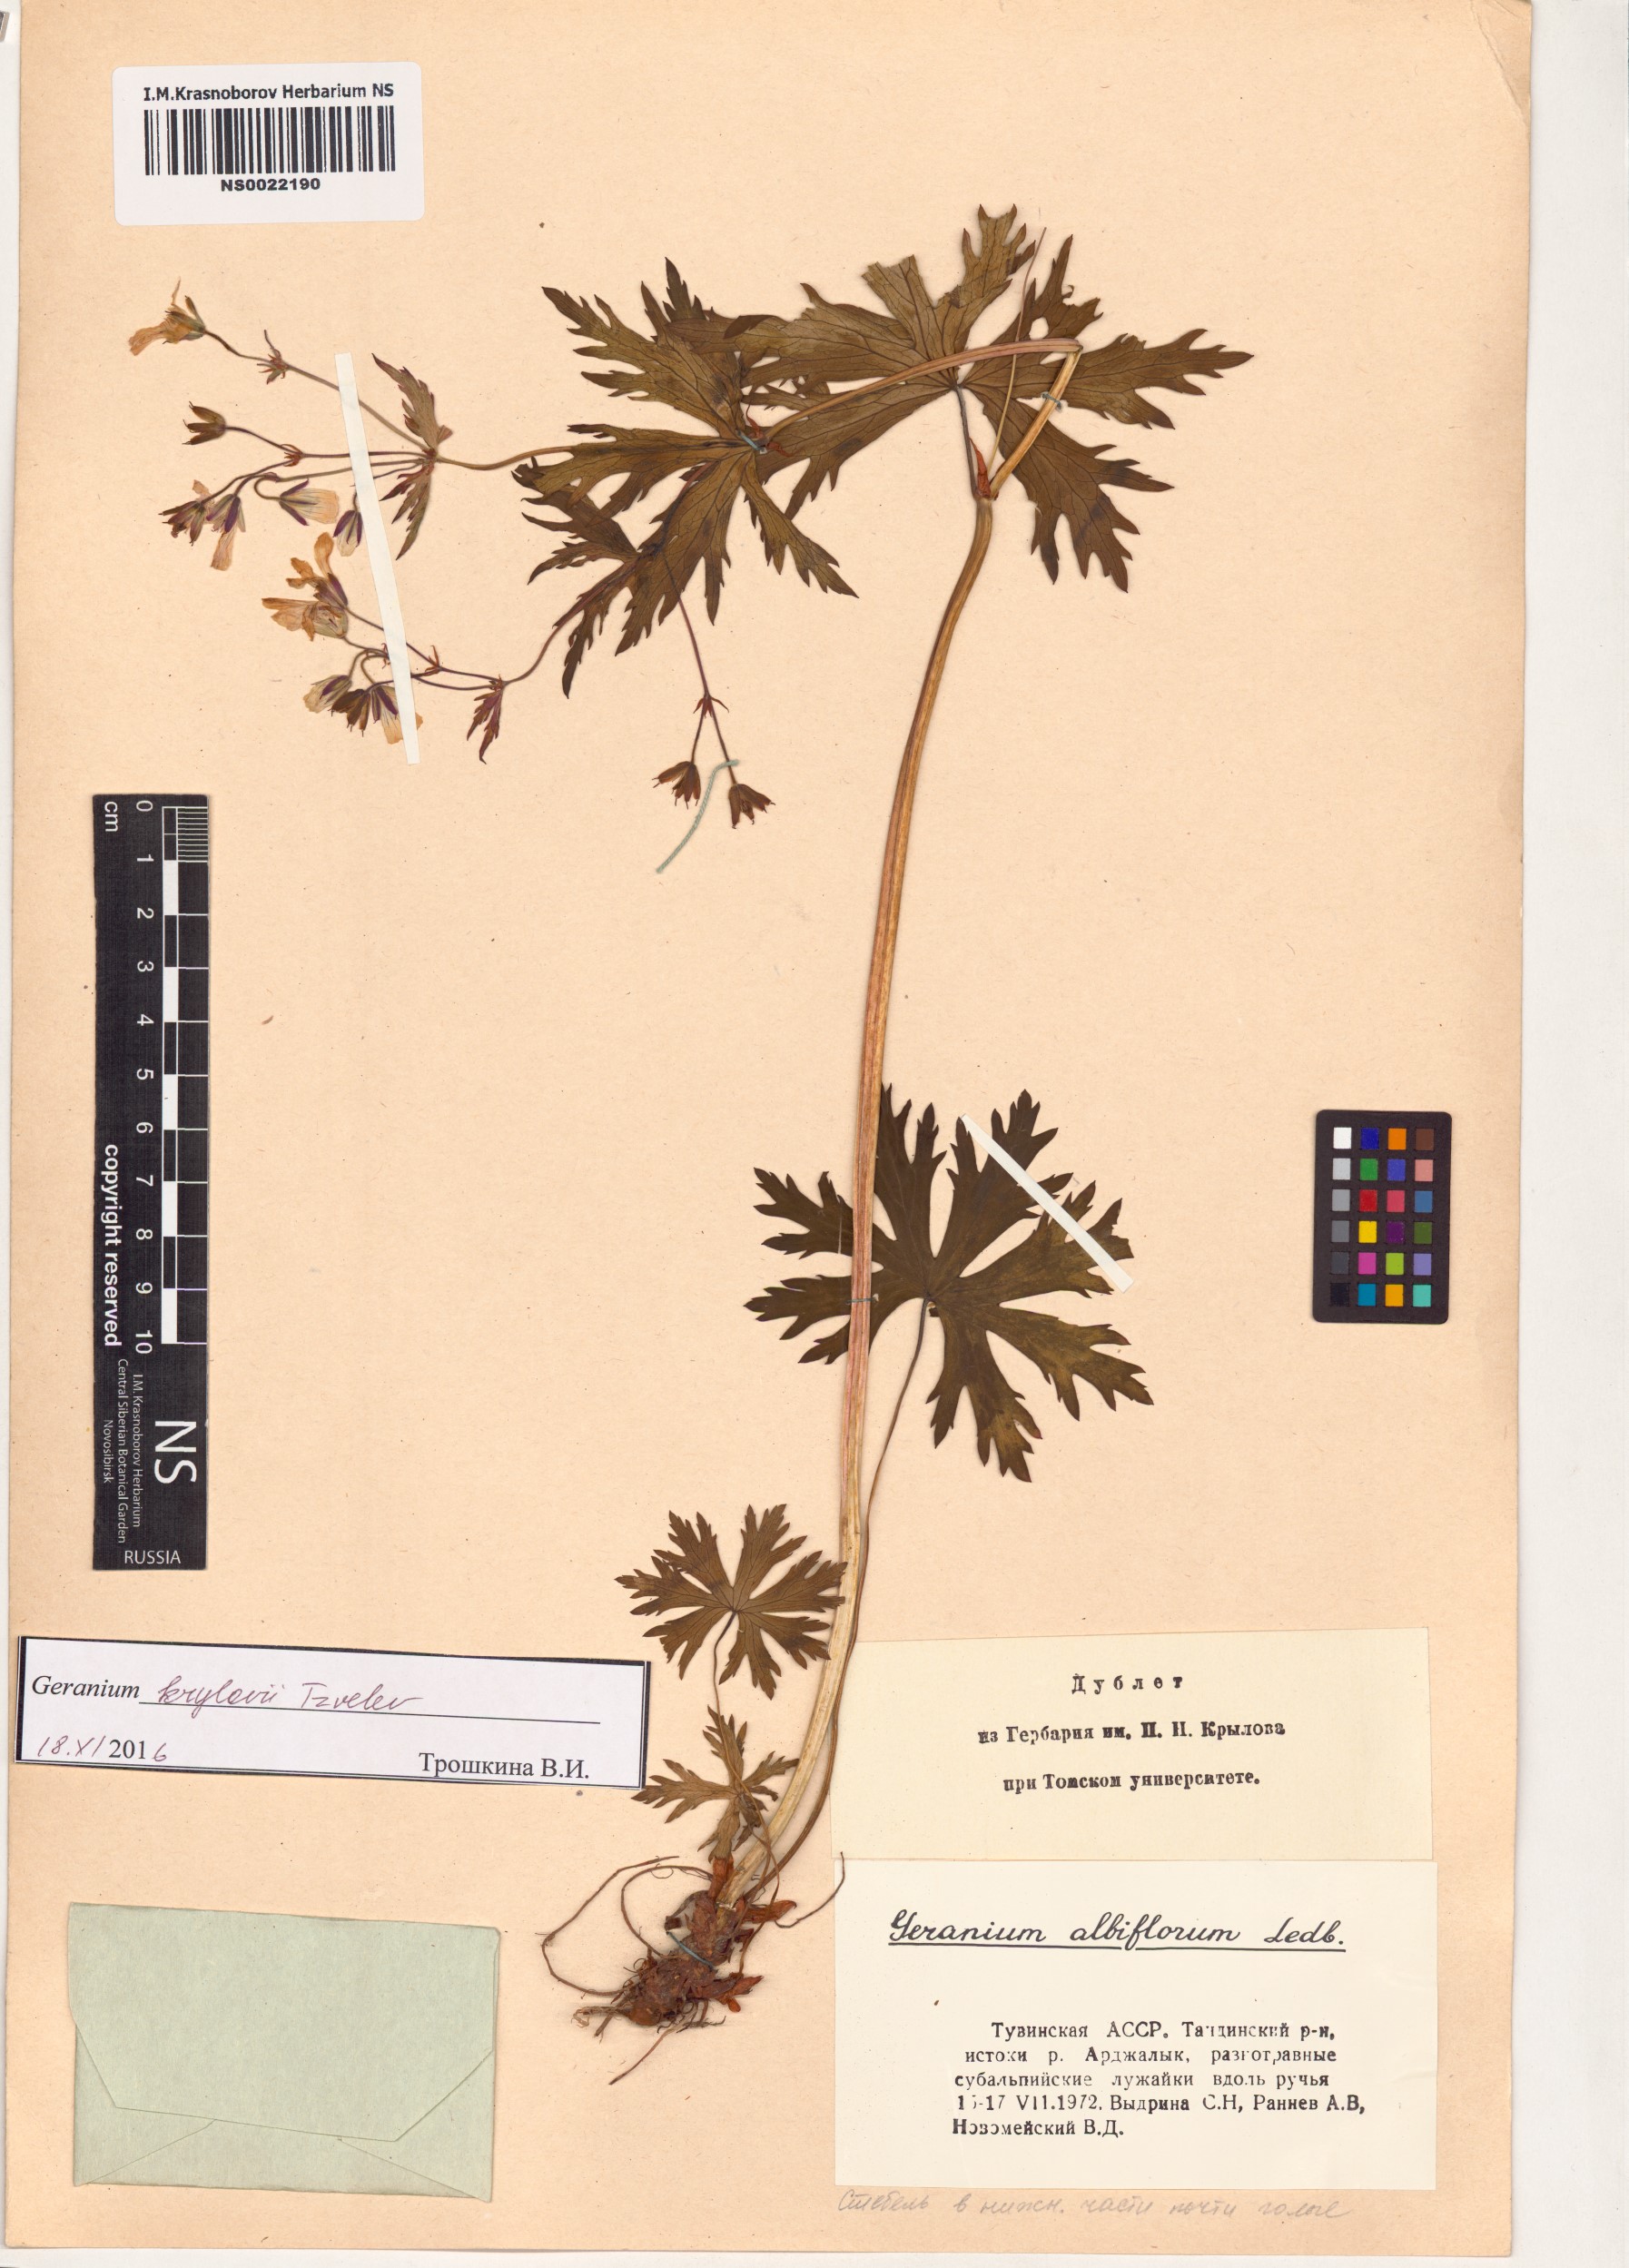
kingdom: Plantae
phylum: Tracheophyta
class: Magnoliopsida
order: Geraniales
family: Geraniaceae
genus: Geranium
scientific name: Geranium sylvaticum
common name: Wood crane's-bill
